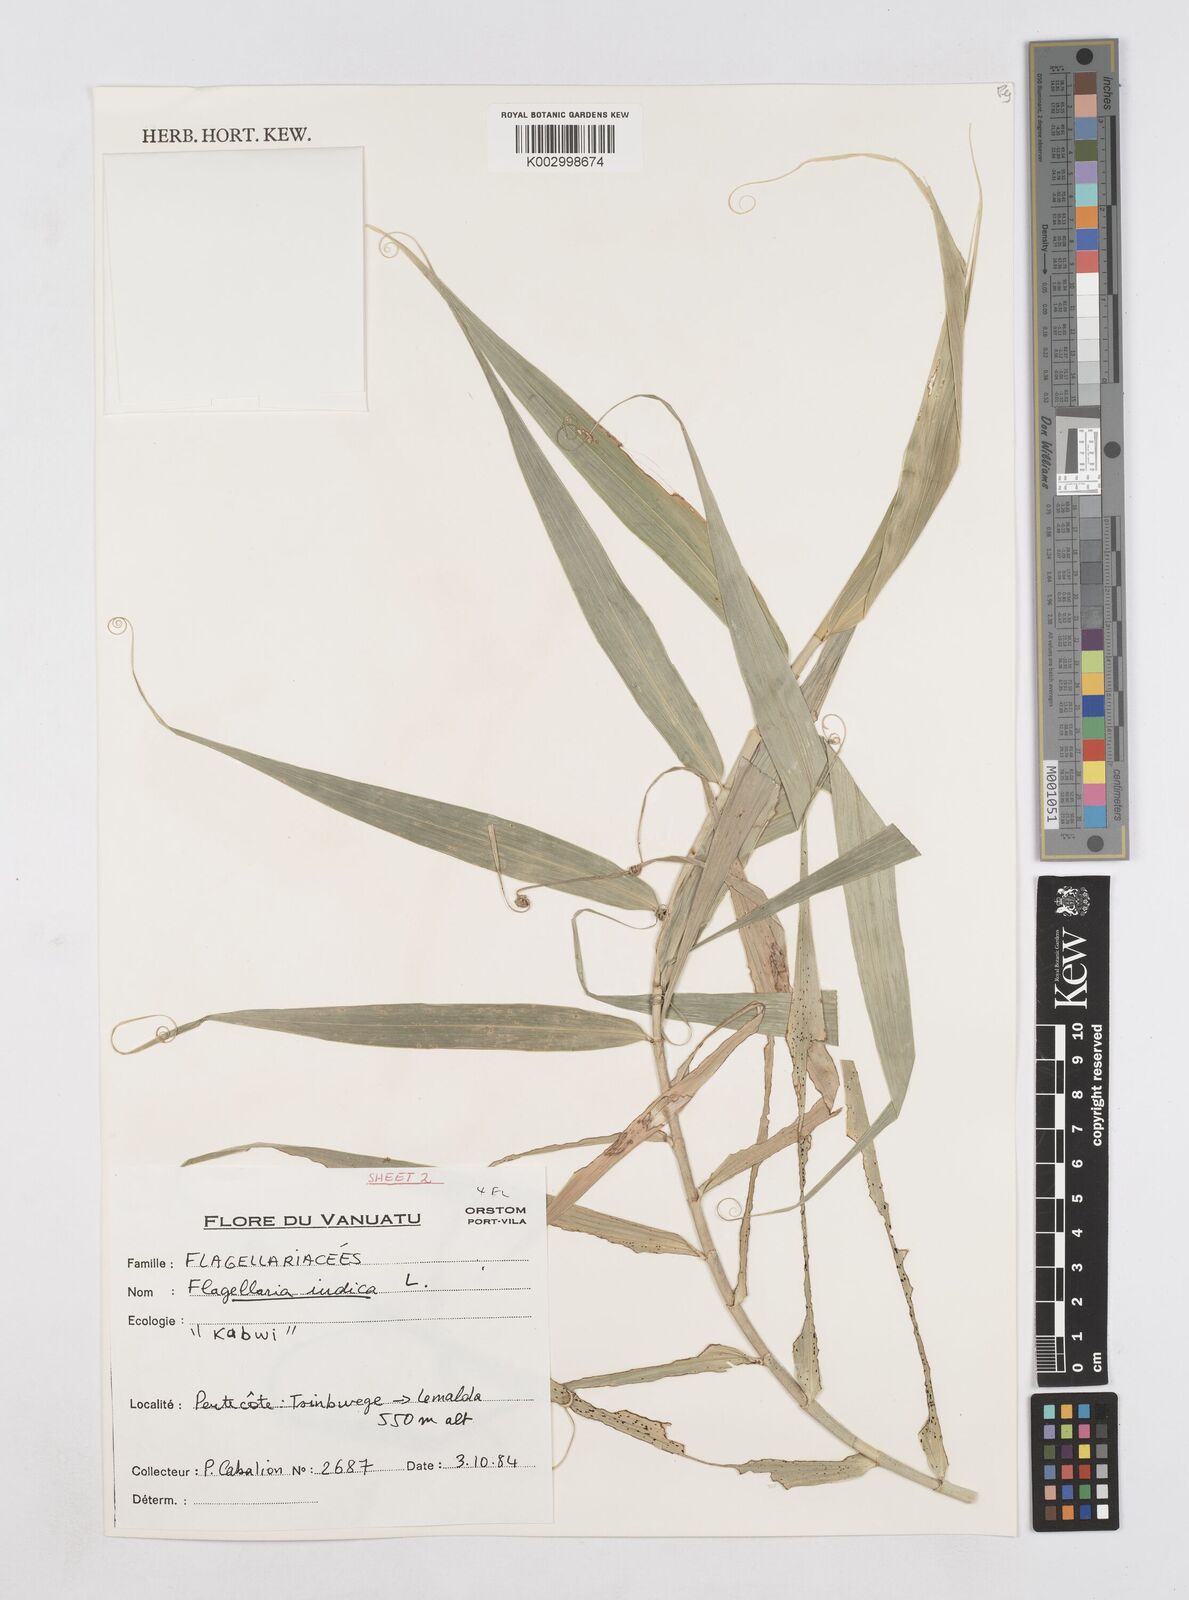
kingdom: Plantae
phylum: Tracheophyta
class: Liliopsida
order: Poales
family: Flagellariaceae
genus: Flagellaria
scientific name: Flagellaria indica
